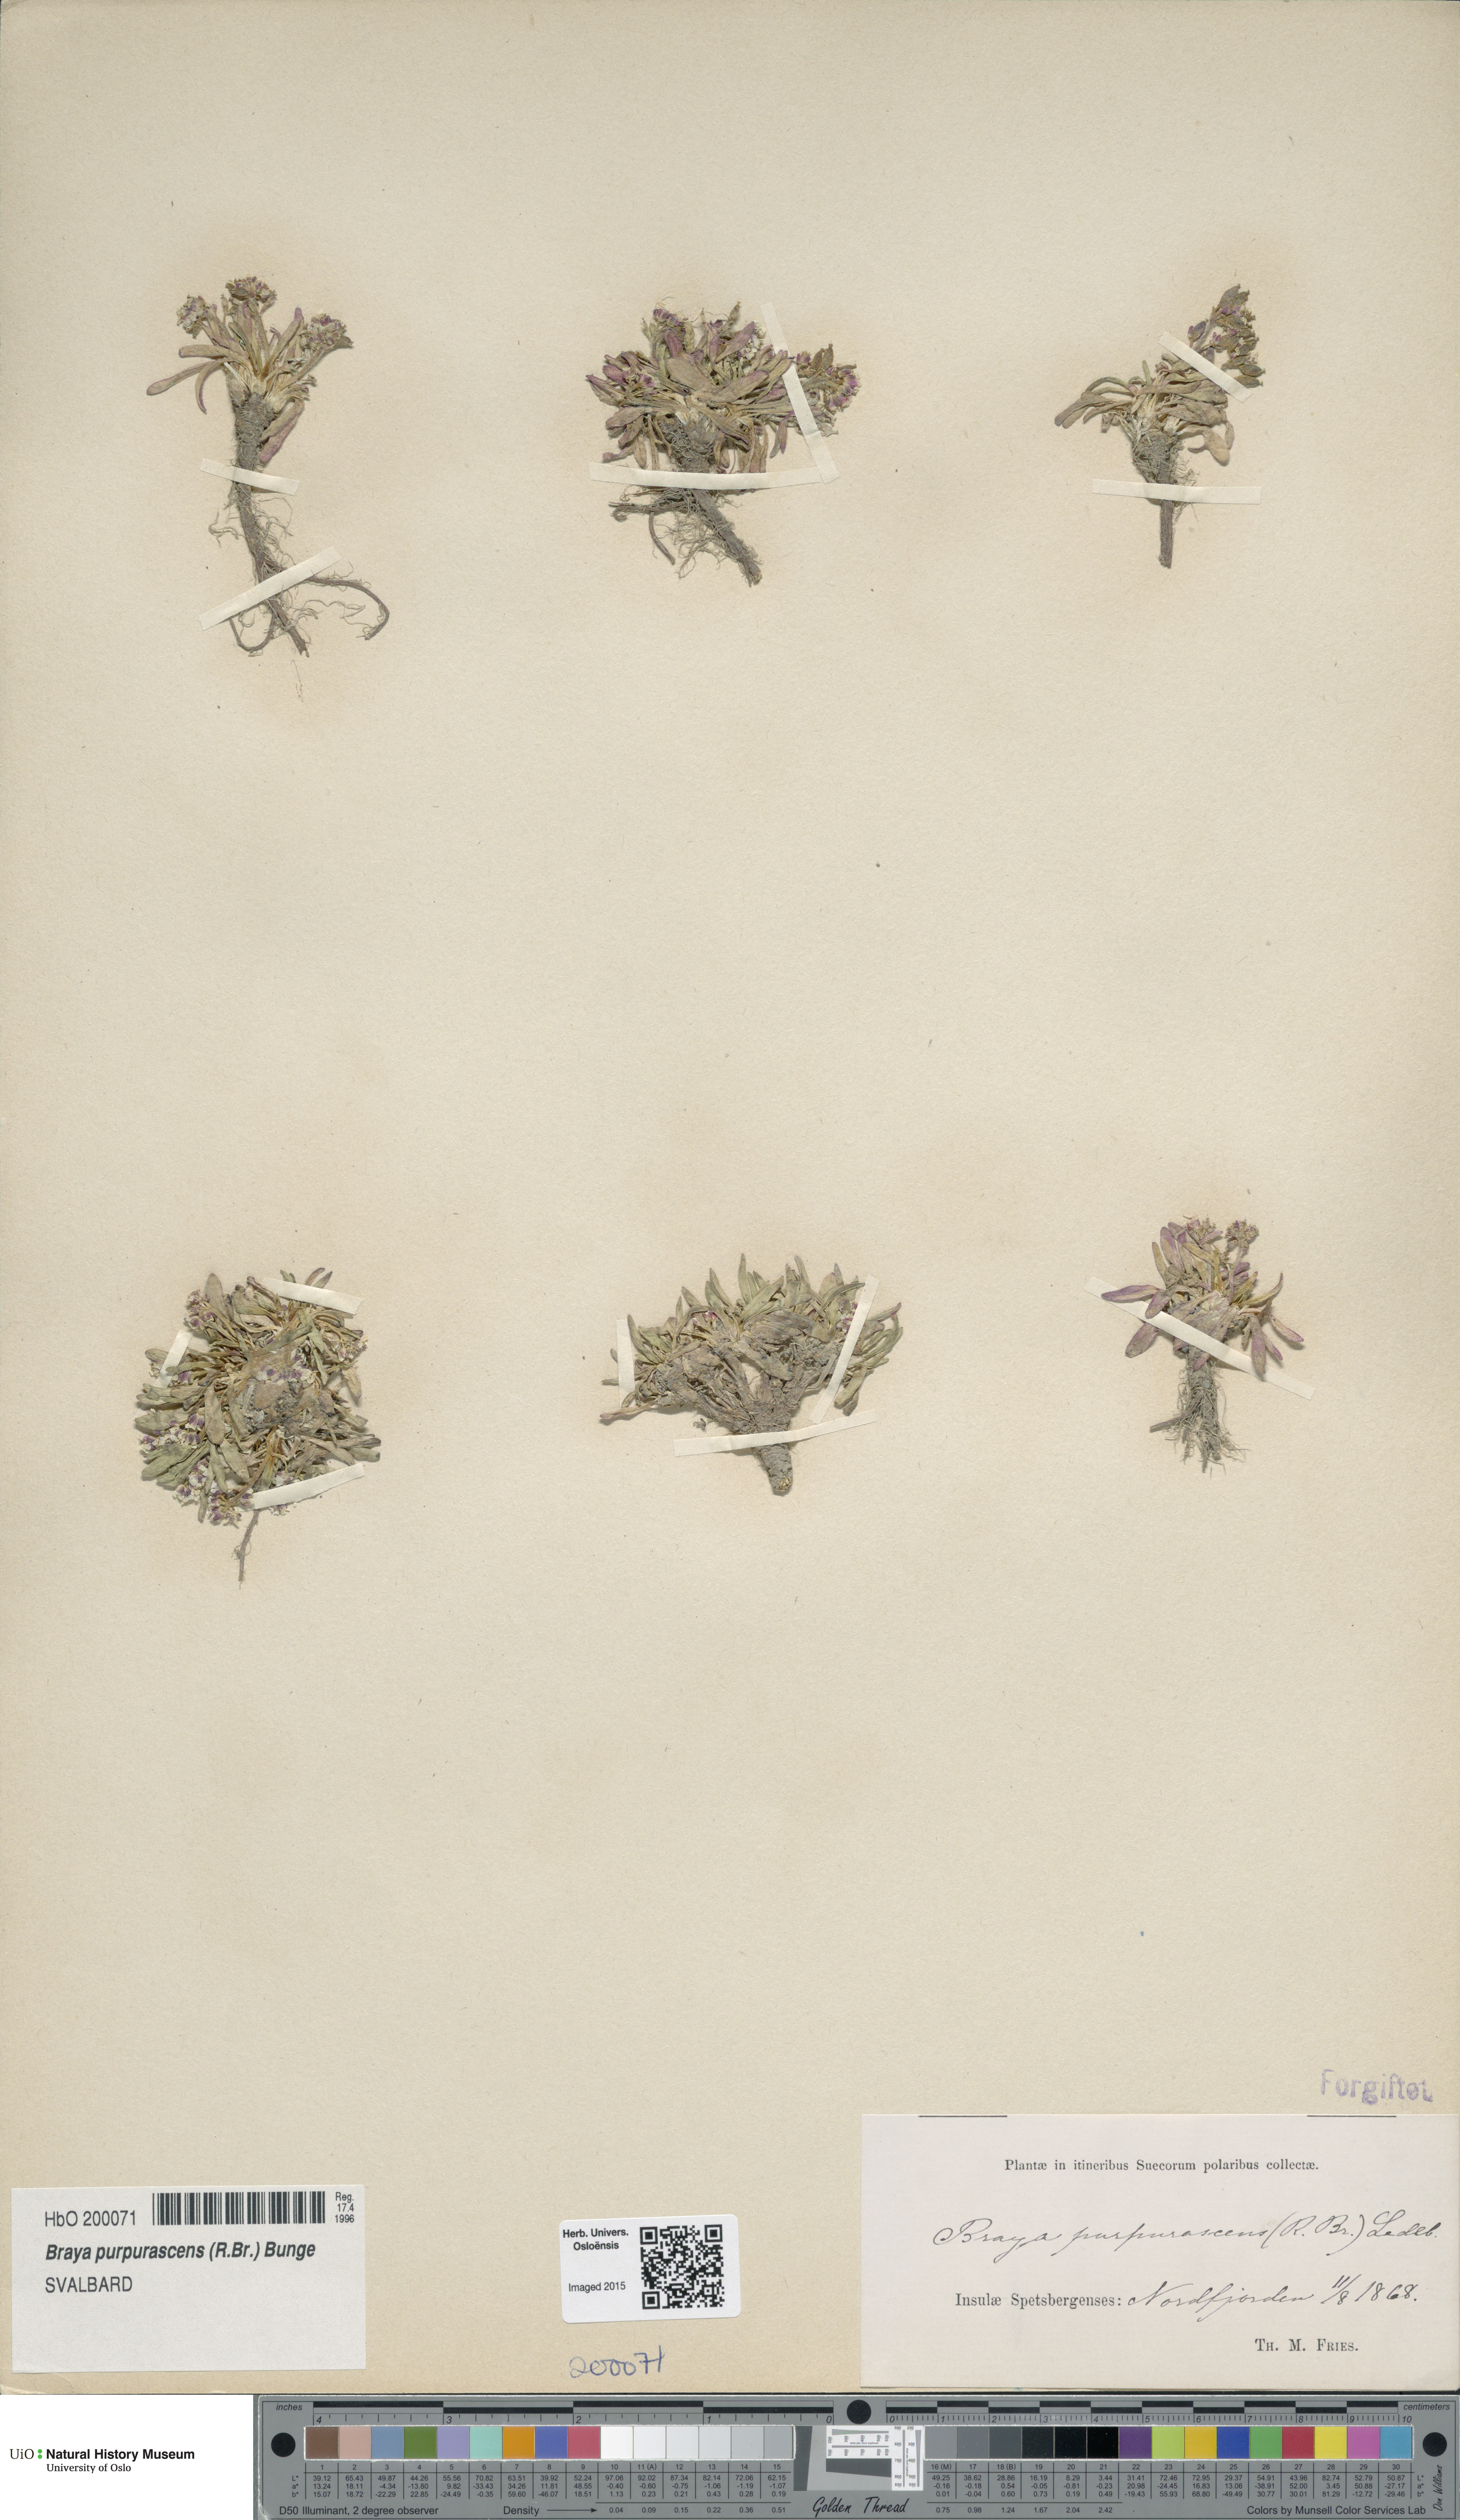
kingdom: Plantae
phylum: Tracheophyta
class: Magnoliopsida
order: Brassicales
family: Brassicaceae
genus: Braya
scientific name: Braya purpurascens
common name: Alpine braya
